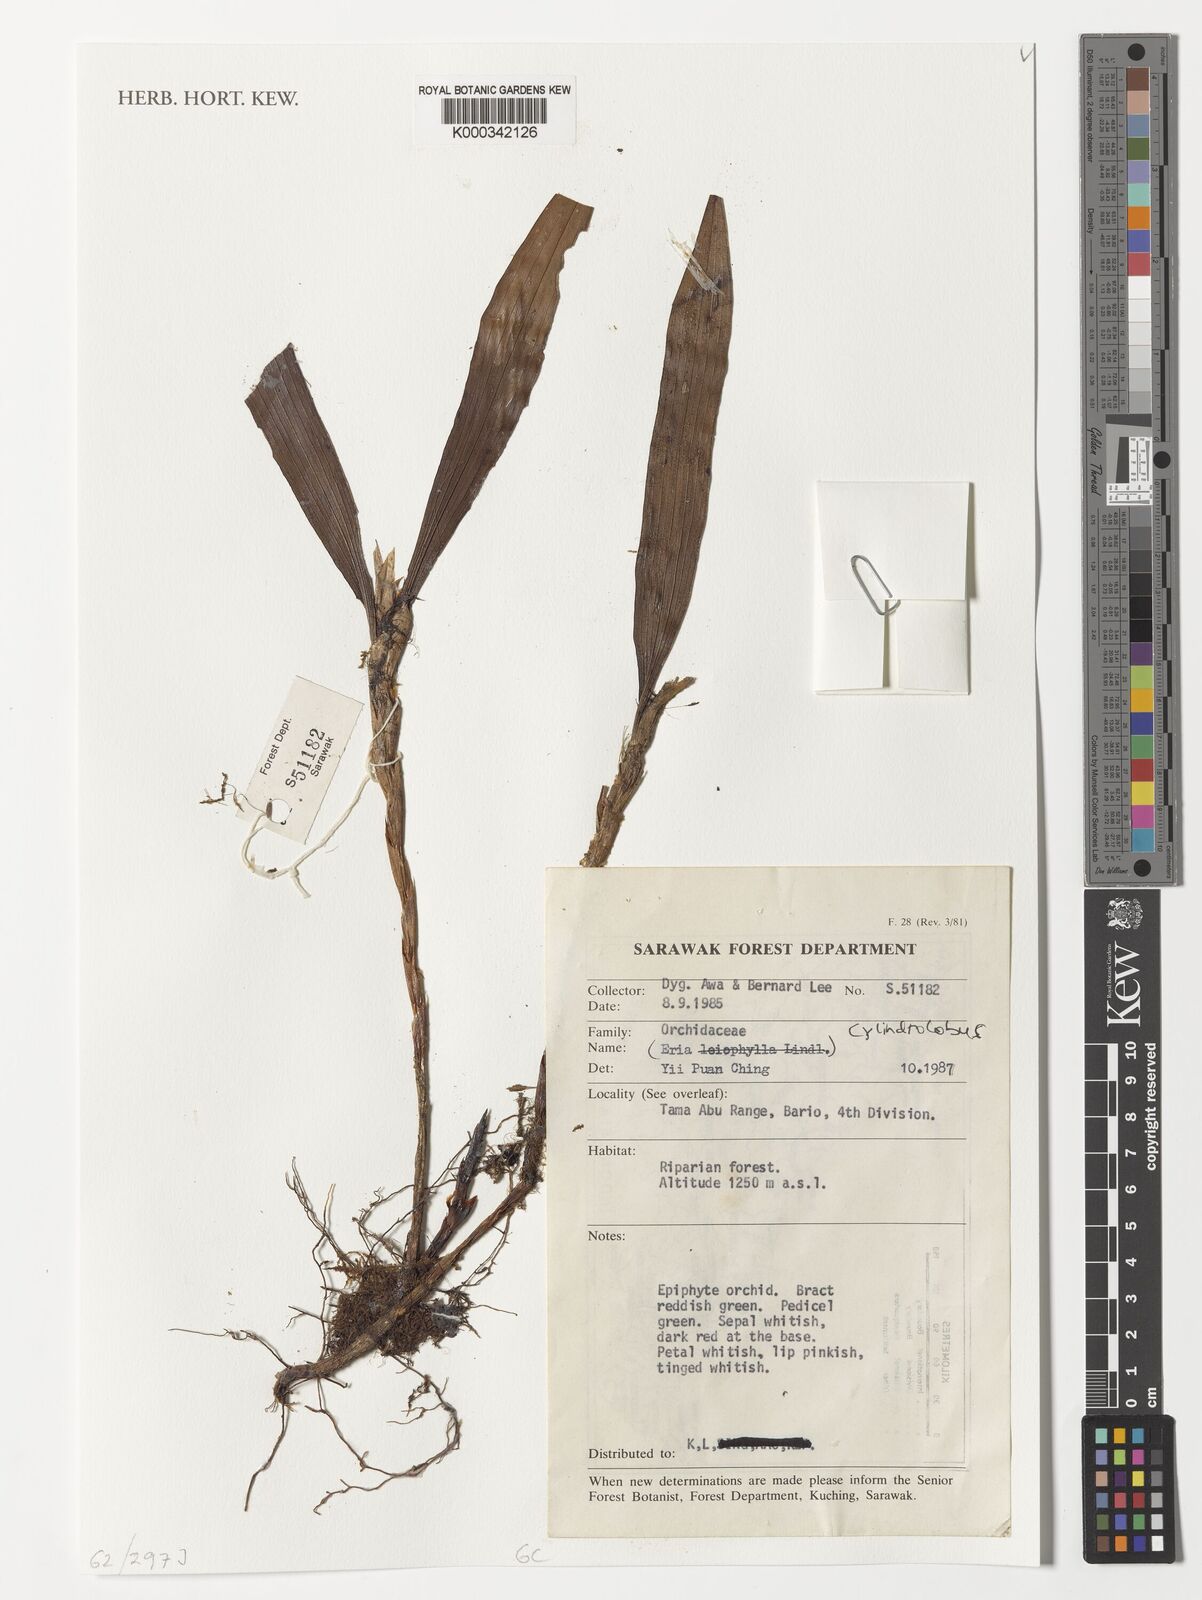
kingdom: Plantae
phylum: Tracheophyta
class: Liliopsida
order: Asparagales
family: Orchidaceae
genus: Eria
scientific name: Eria
